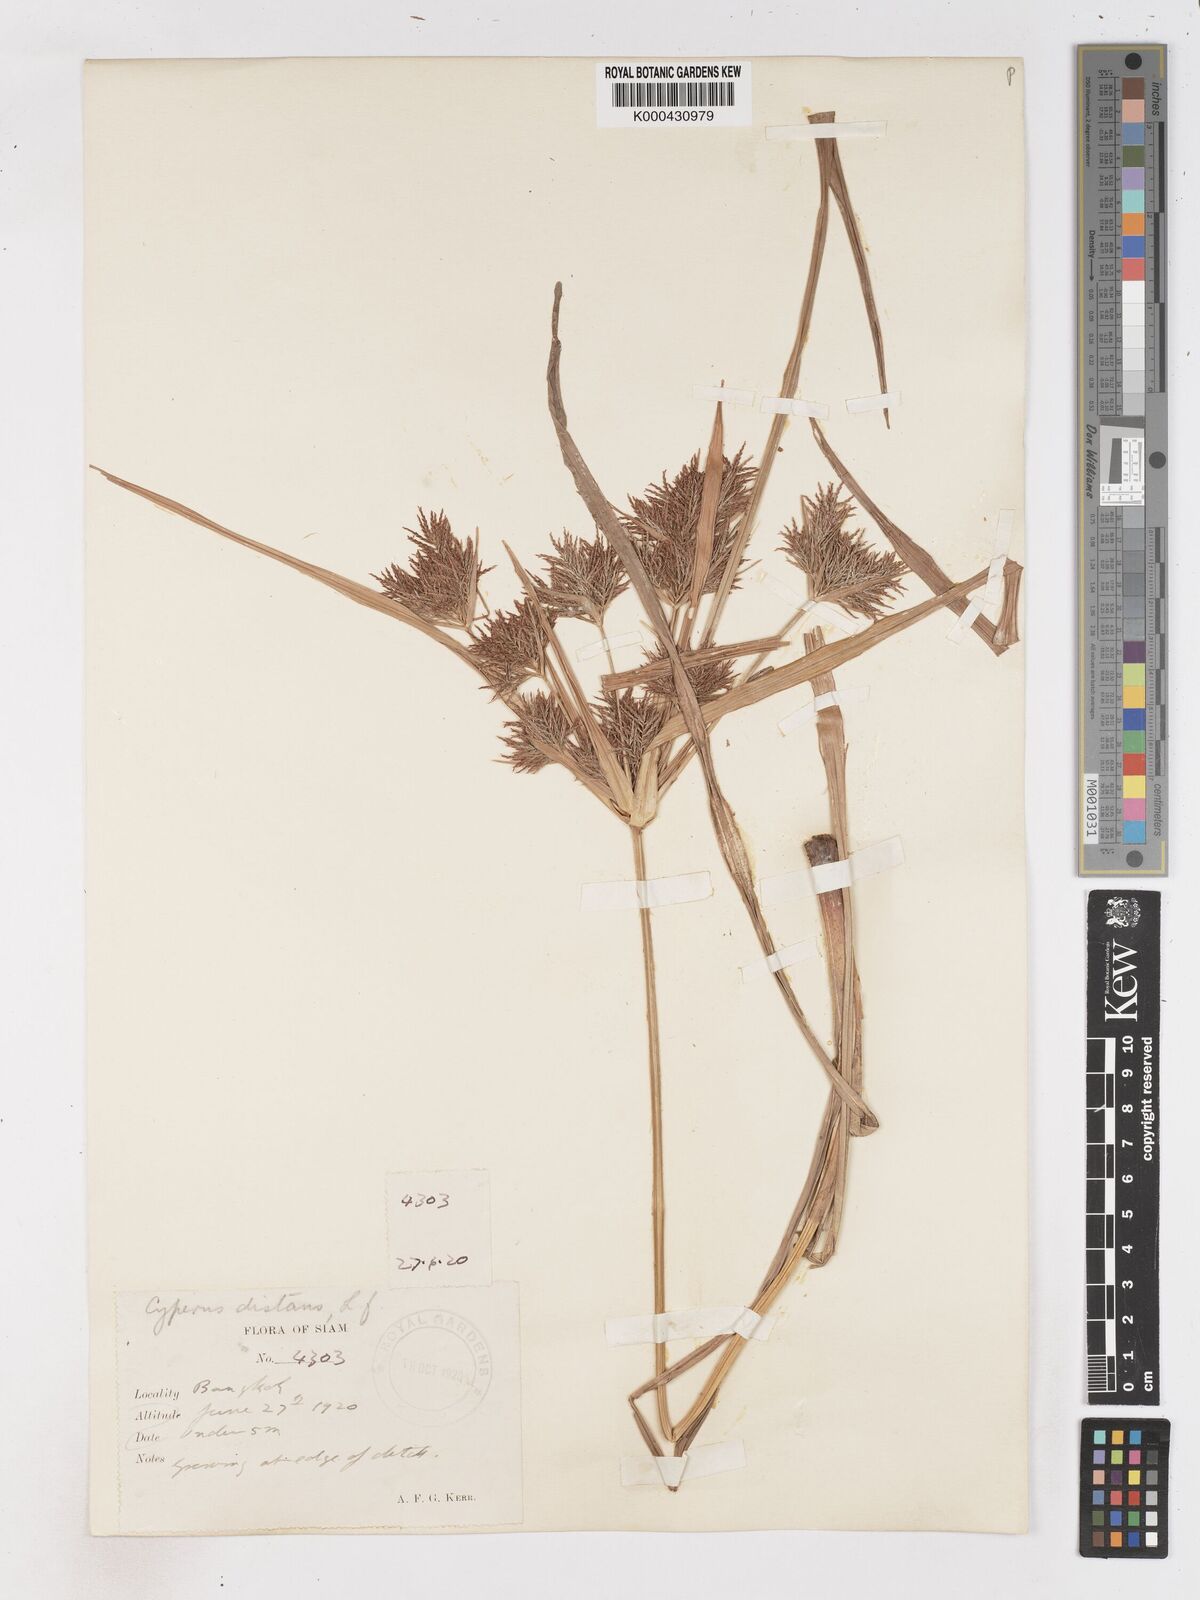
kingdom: Plantae
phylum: Tracheophyta
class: Liliopsida
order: Poales
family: Cyperaceae
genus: Cyperus
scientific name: Cyperus distans
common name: Slender cyperus
